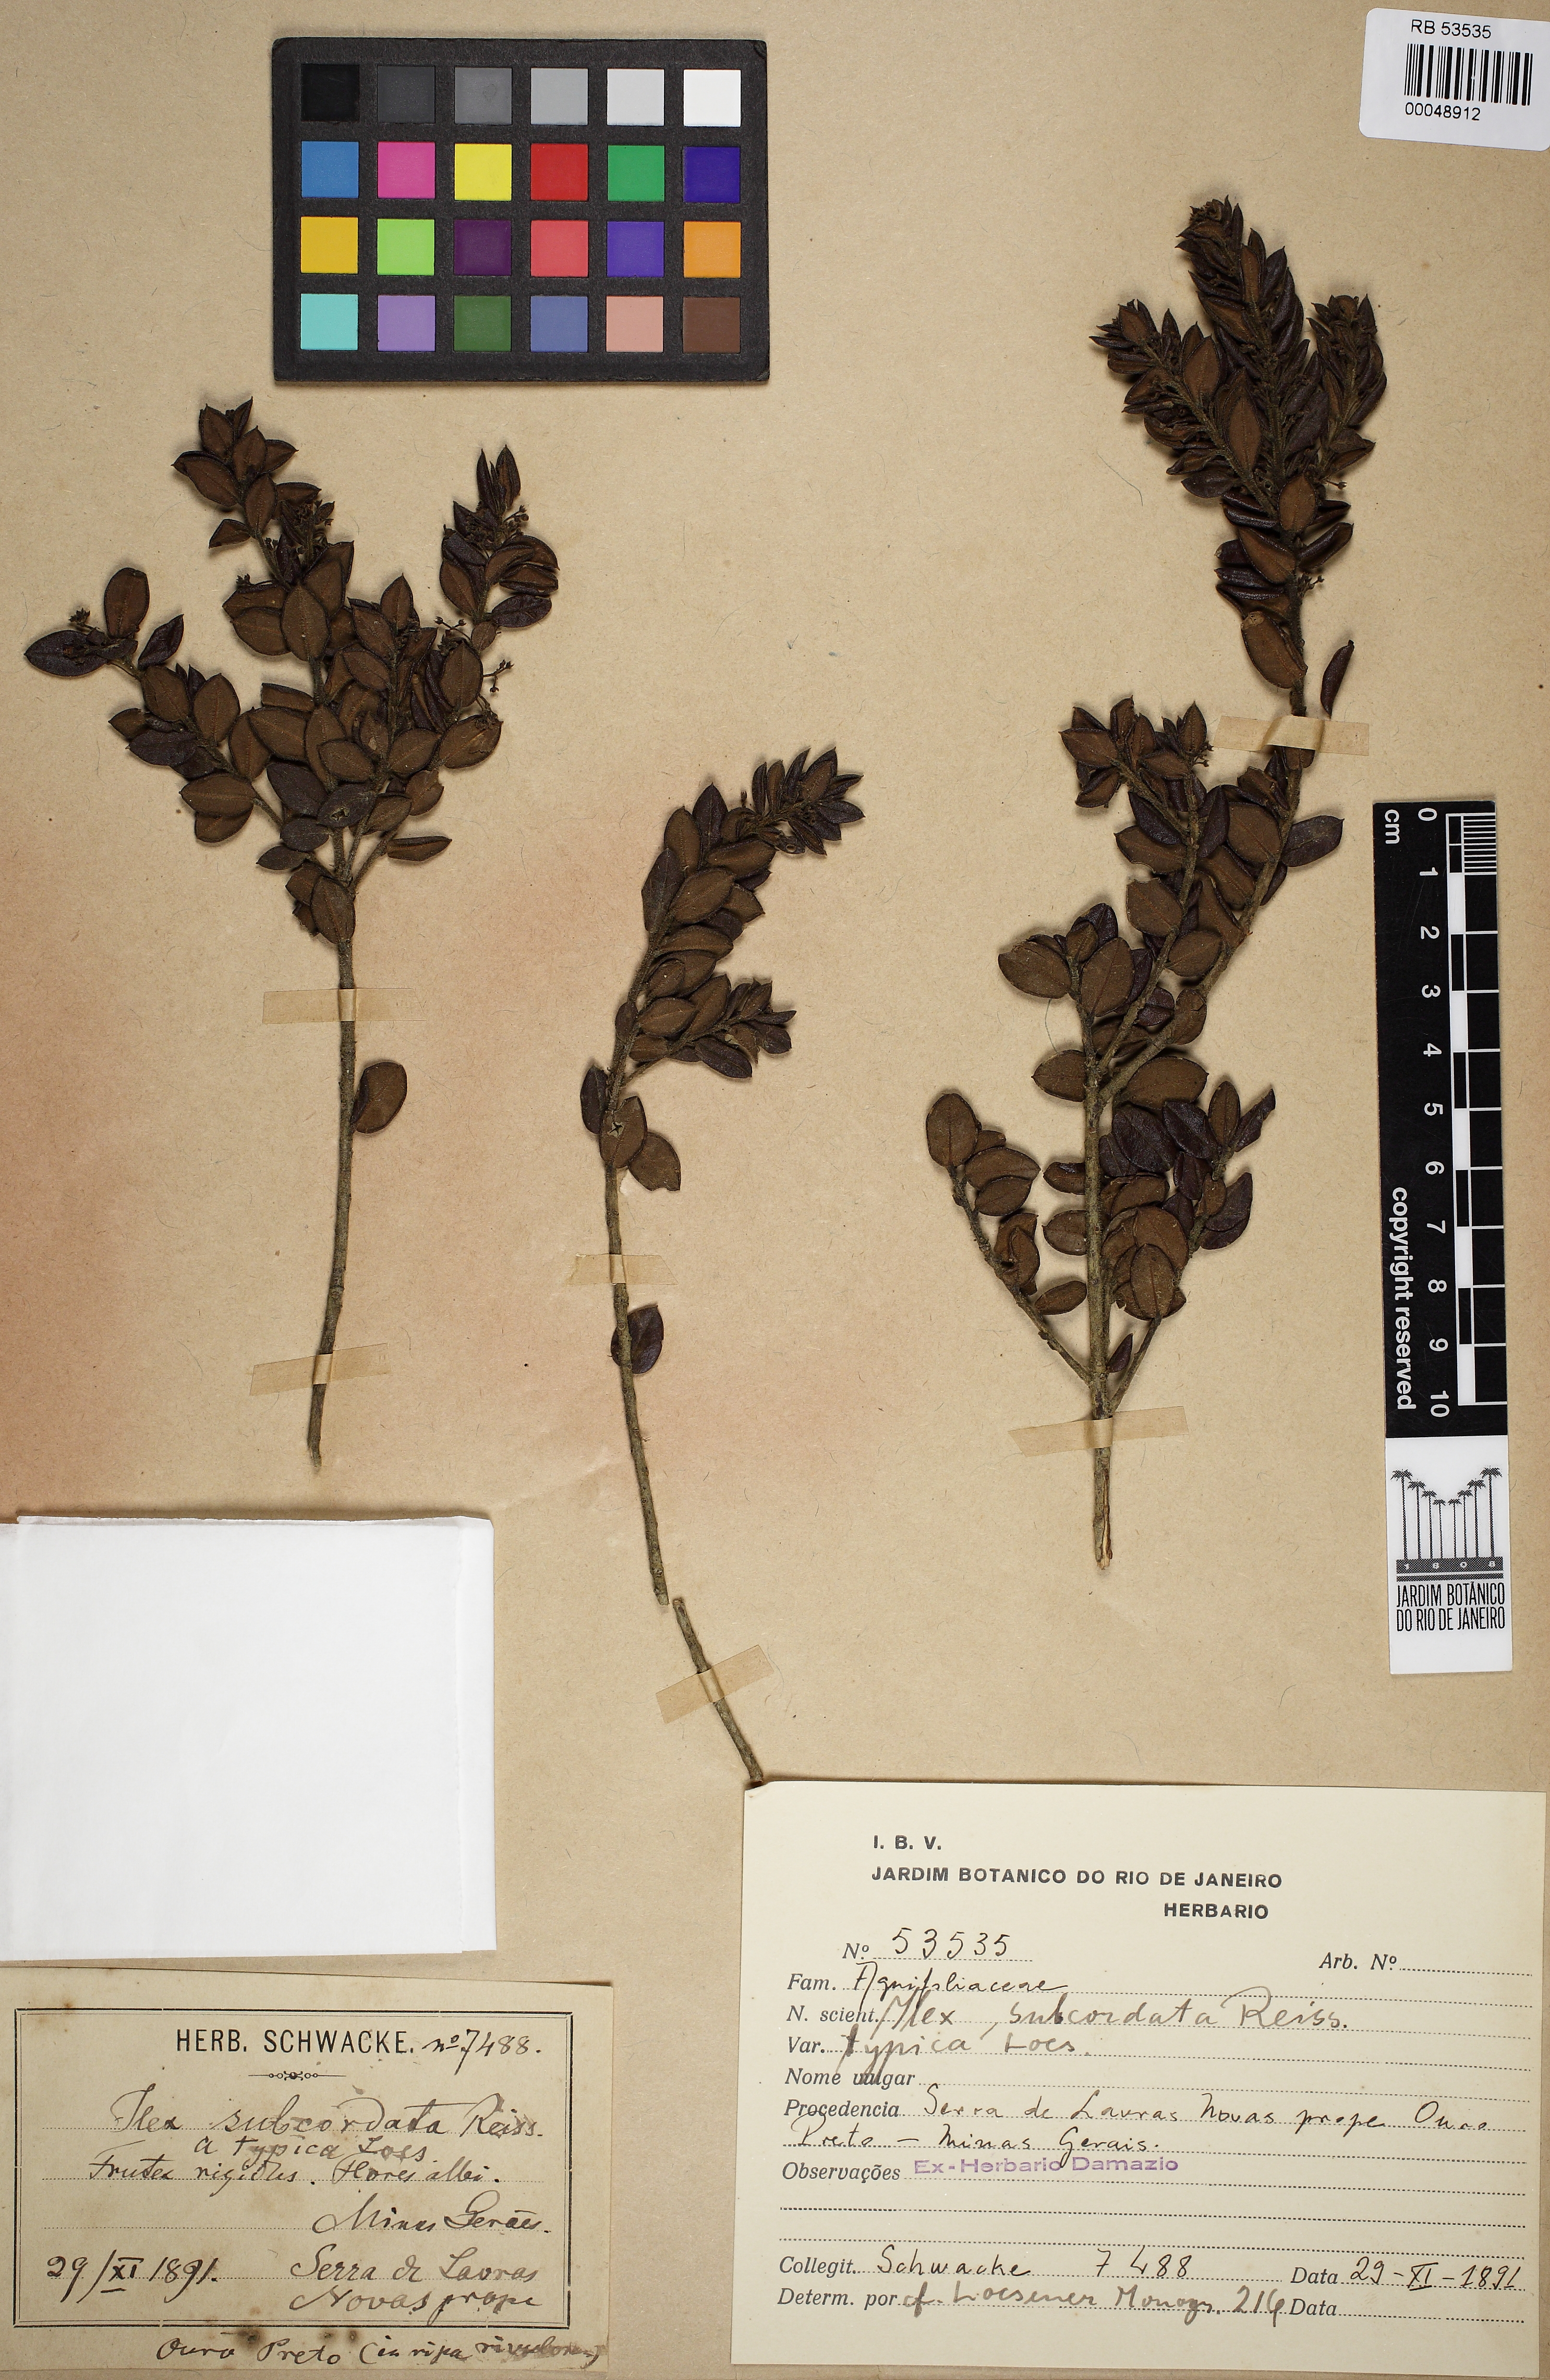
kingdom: Plantae
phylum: Tracheophyta
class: Magnoliopsida
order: Aquifoliales
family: Aquifoliaceae
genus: Ilex
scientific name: Ilex subcordata
